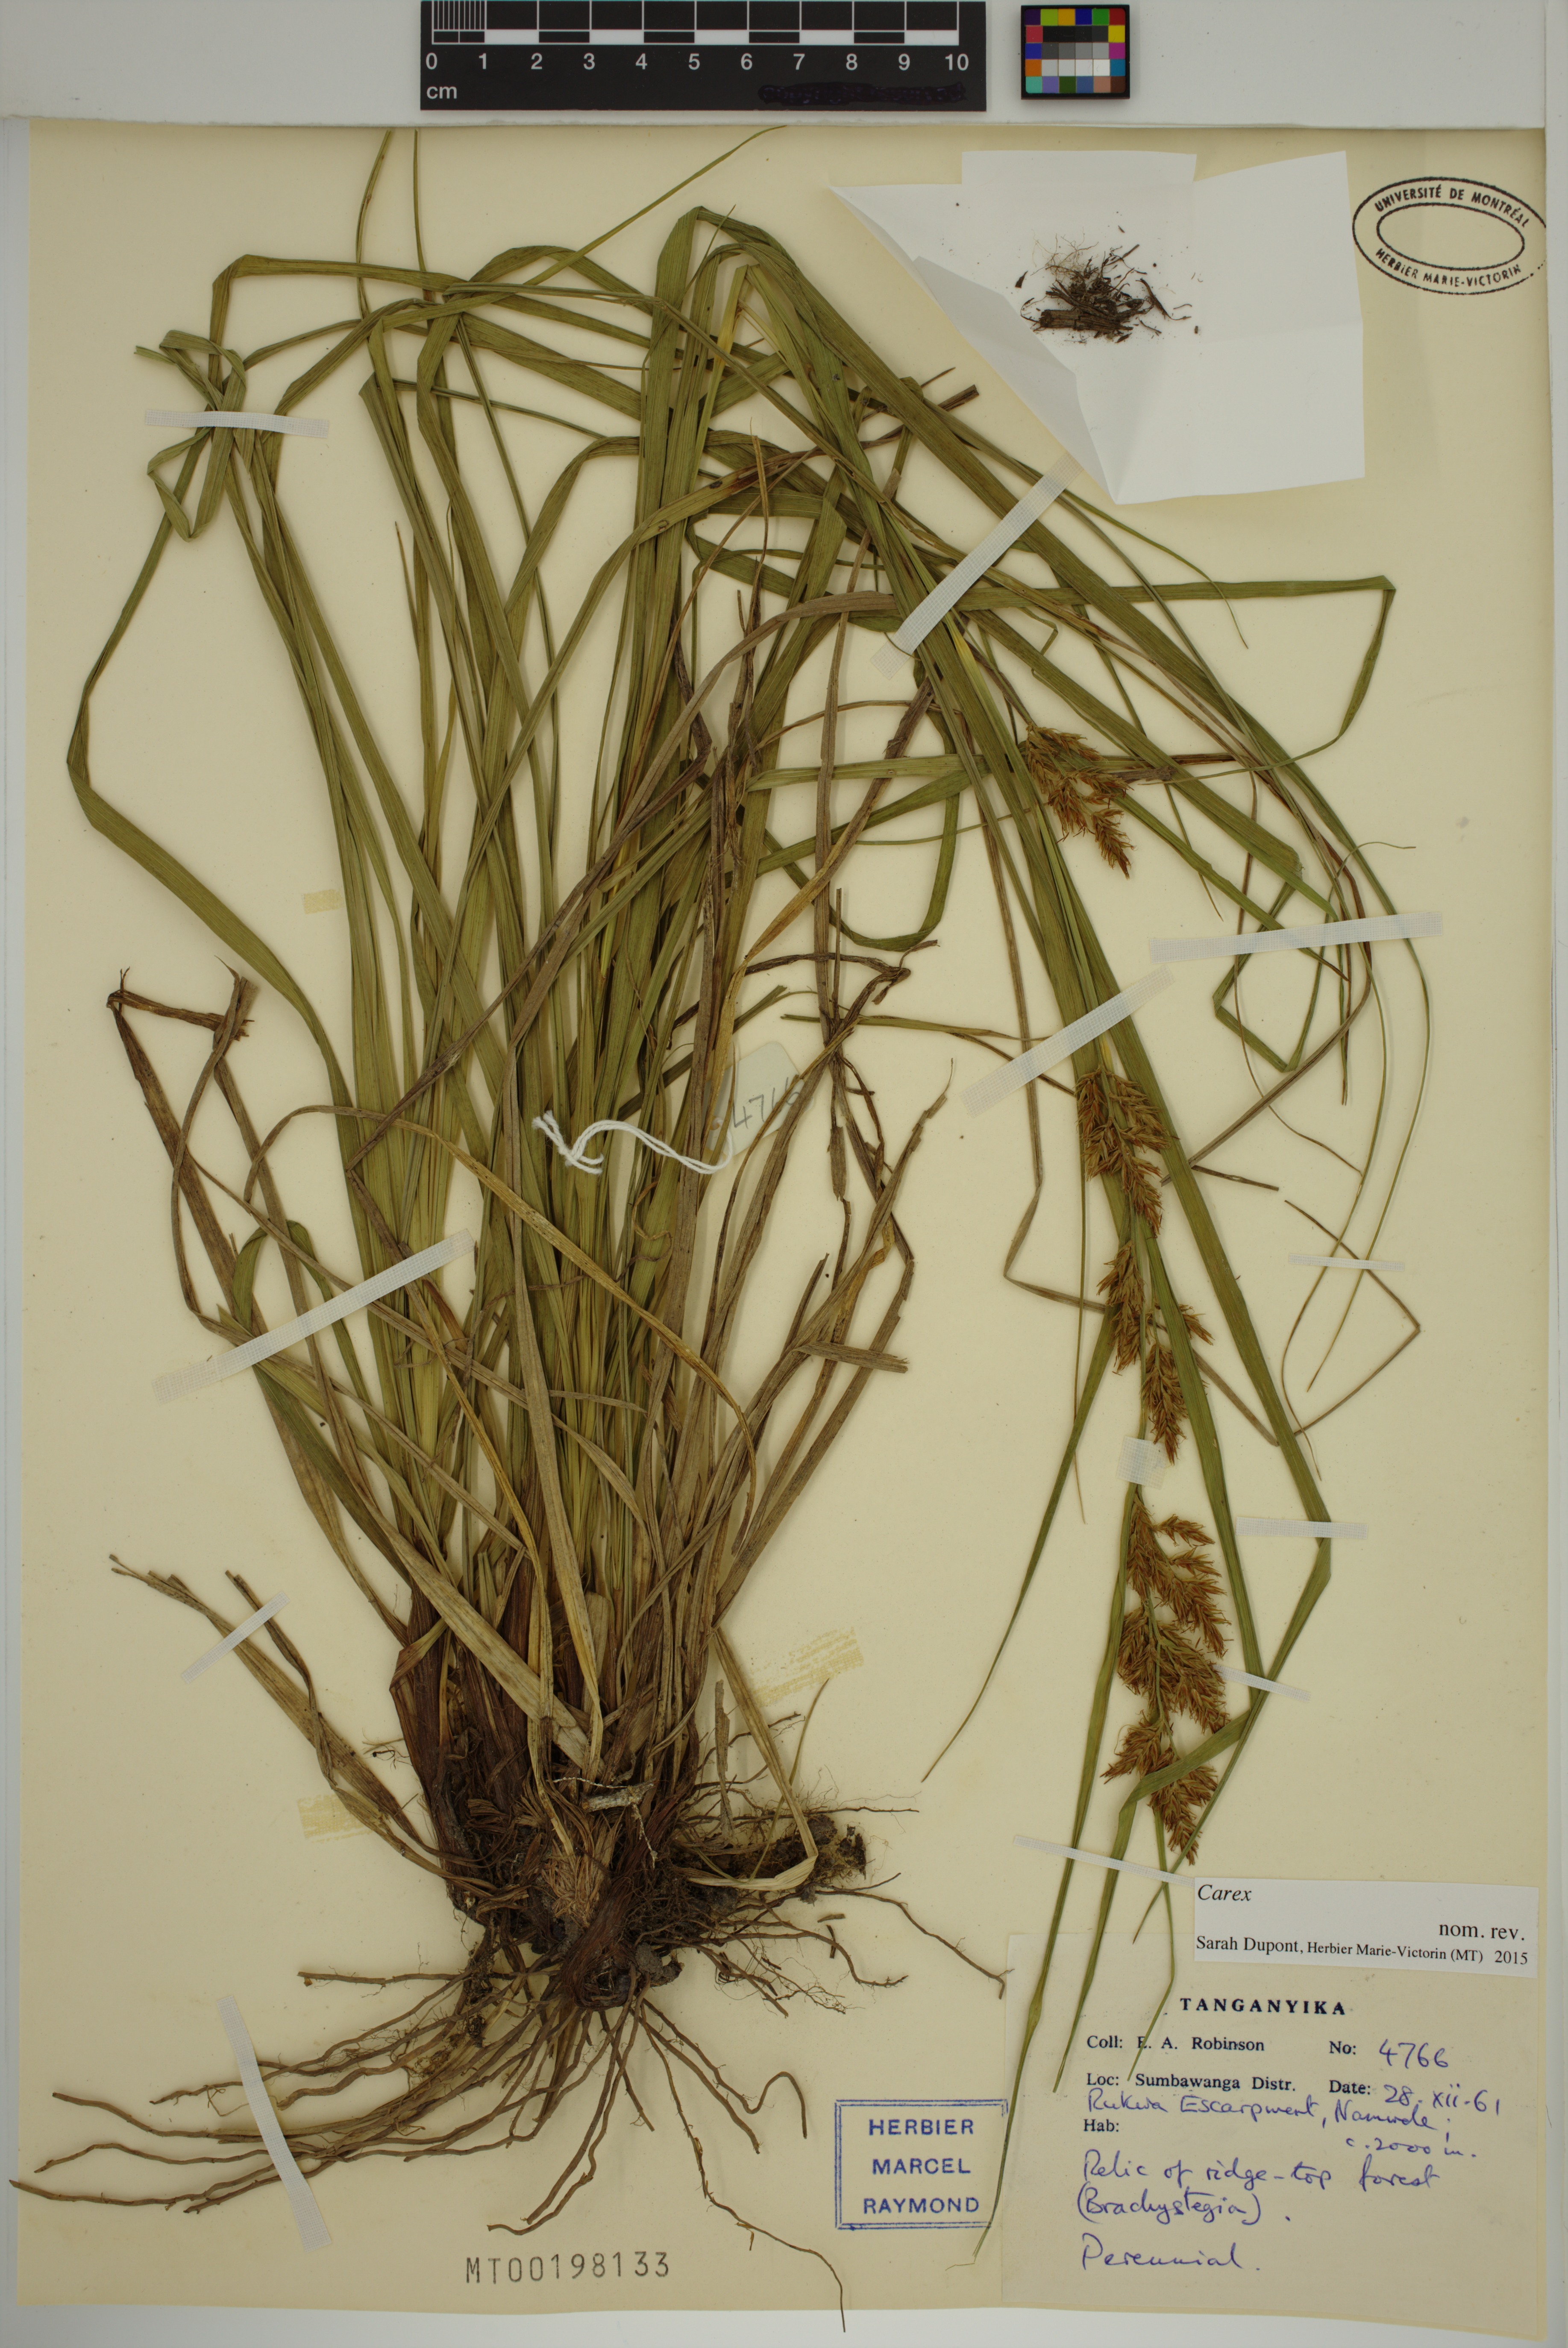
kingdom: Plantae
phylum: Tracheophyta
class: Liliopsida
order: Poales
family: Cyperaceae
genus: Carex
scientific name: Carex
